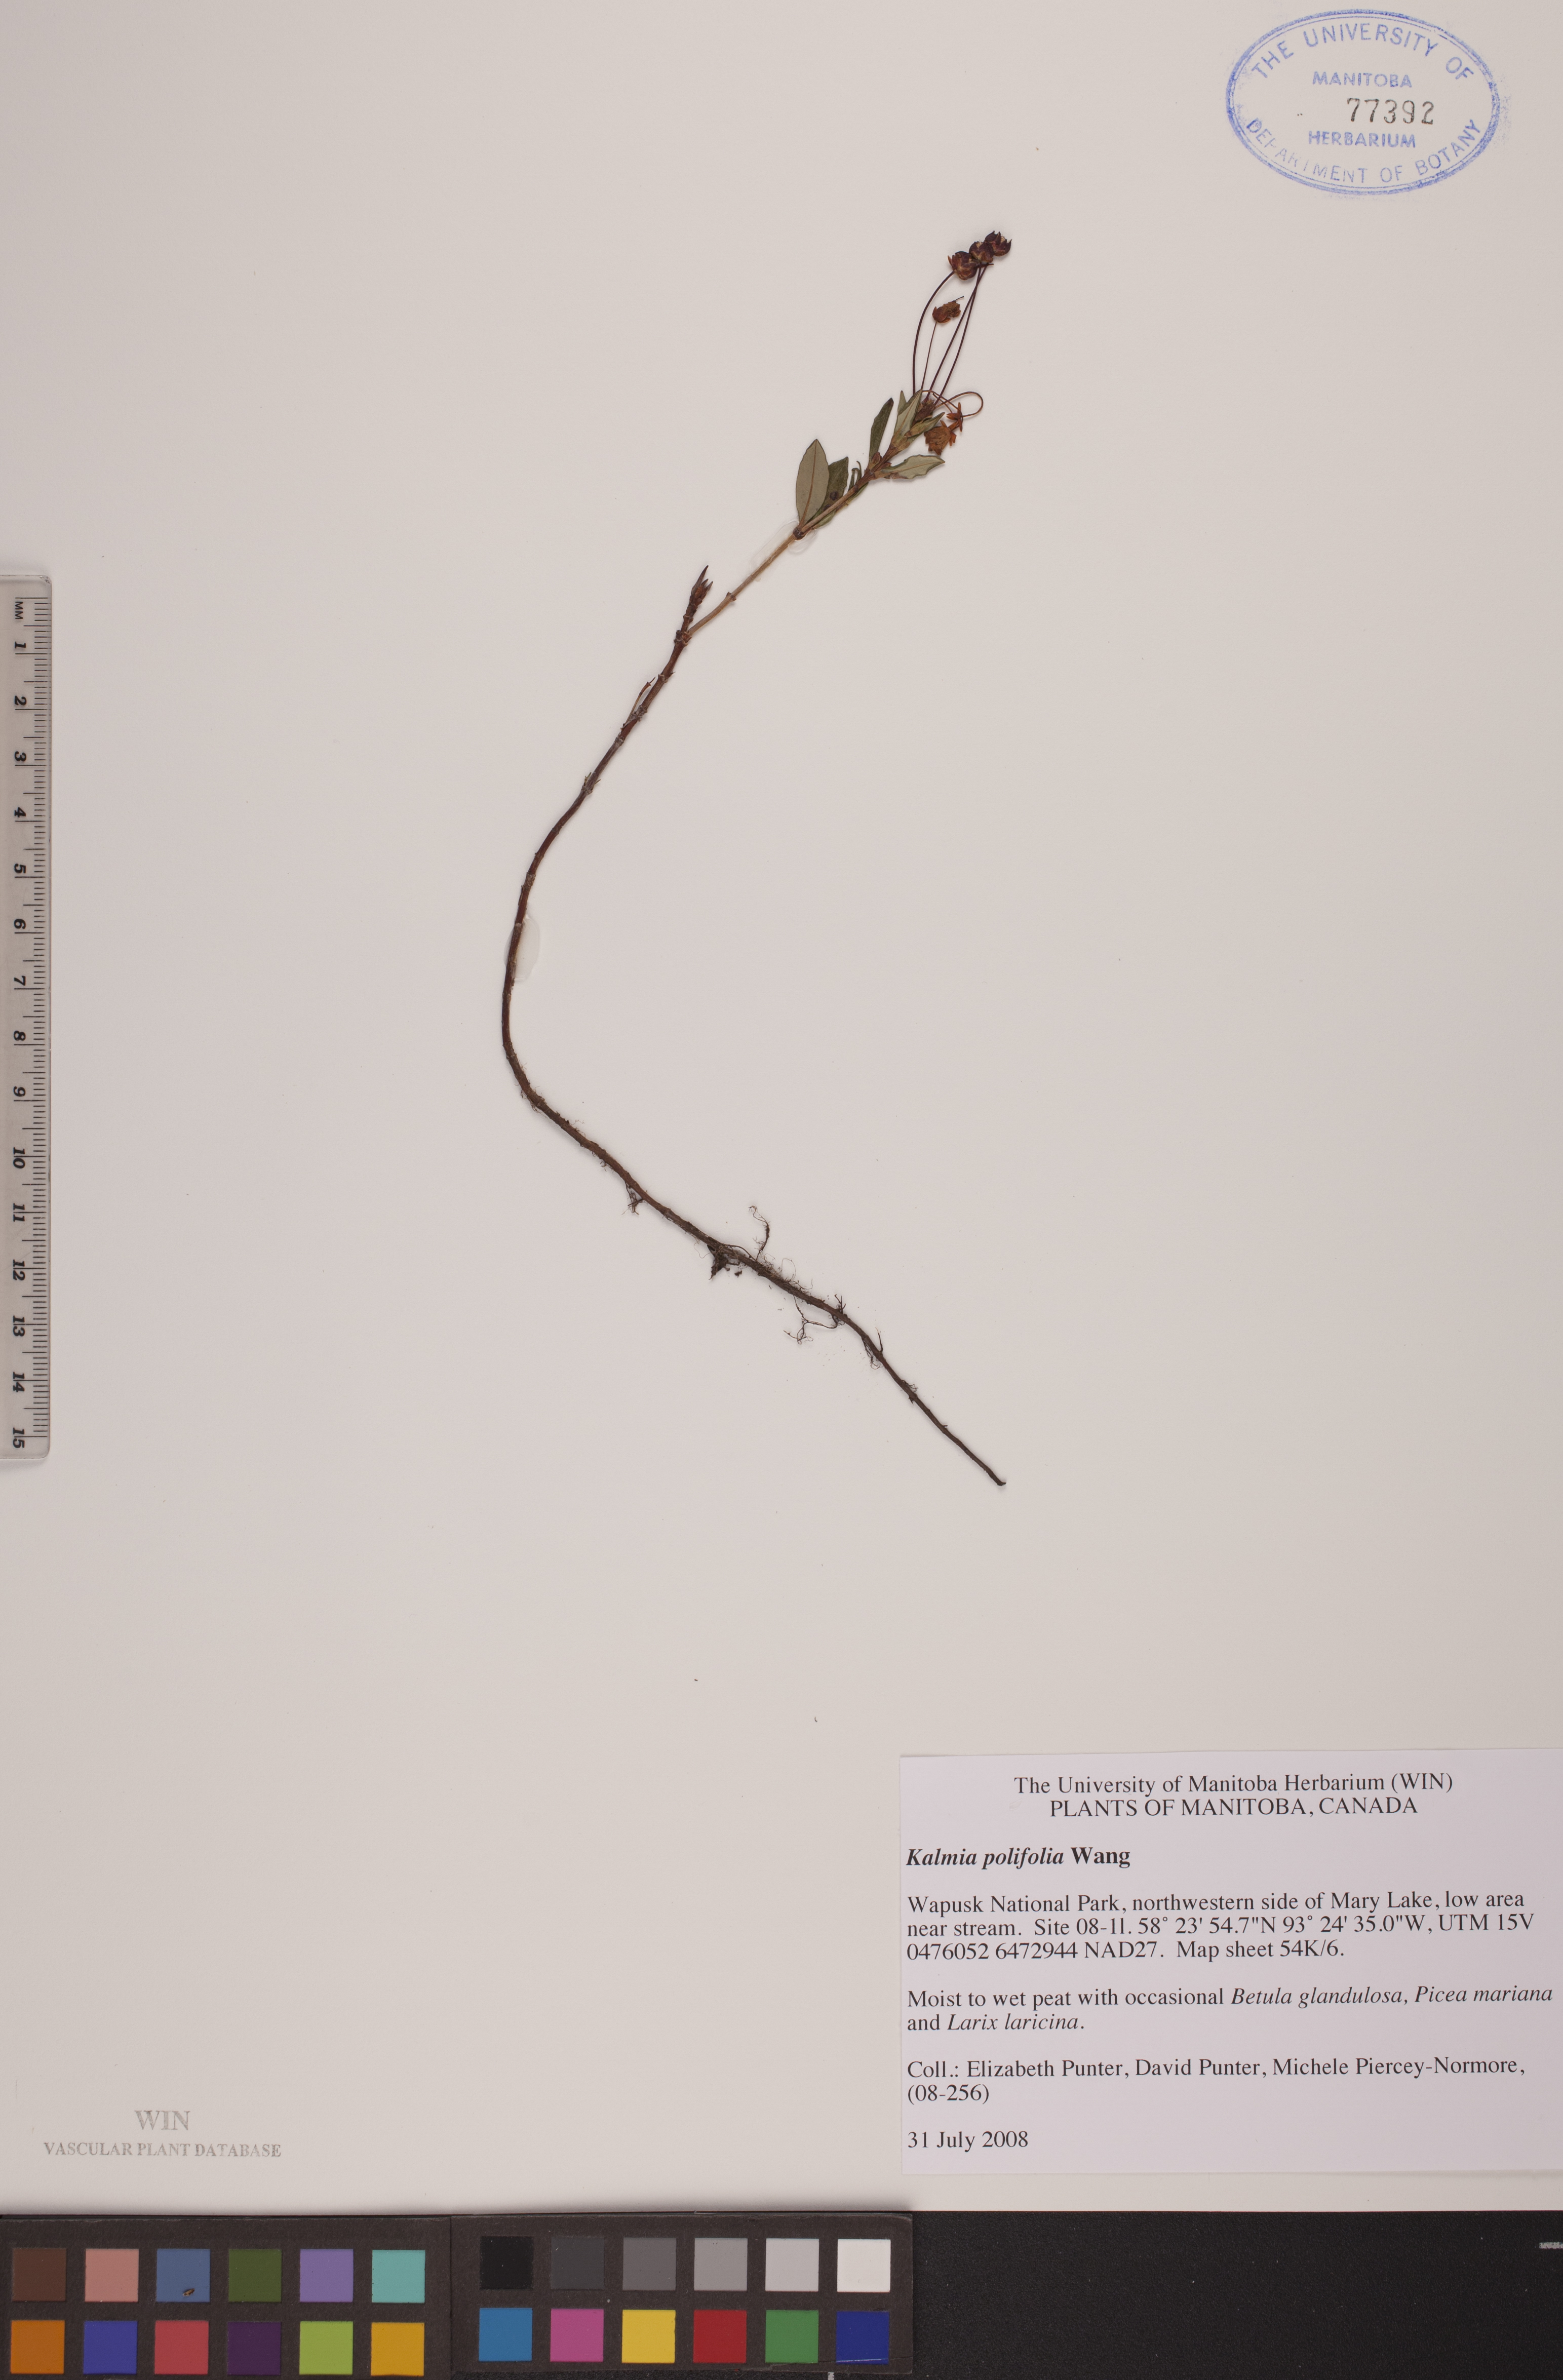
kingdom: Plantae
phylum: Tracheophyta
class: Magnoliopsida
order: Ericales
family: Ericaceae
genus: Kalmia
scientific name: Kalmia polifolia
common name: Bog-laurel
